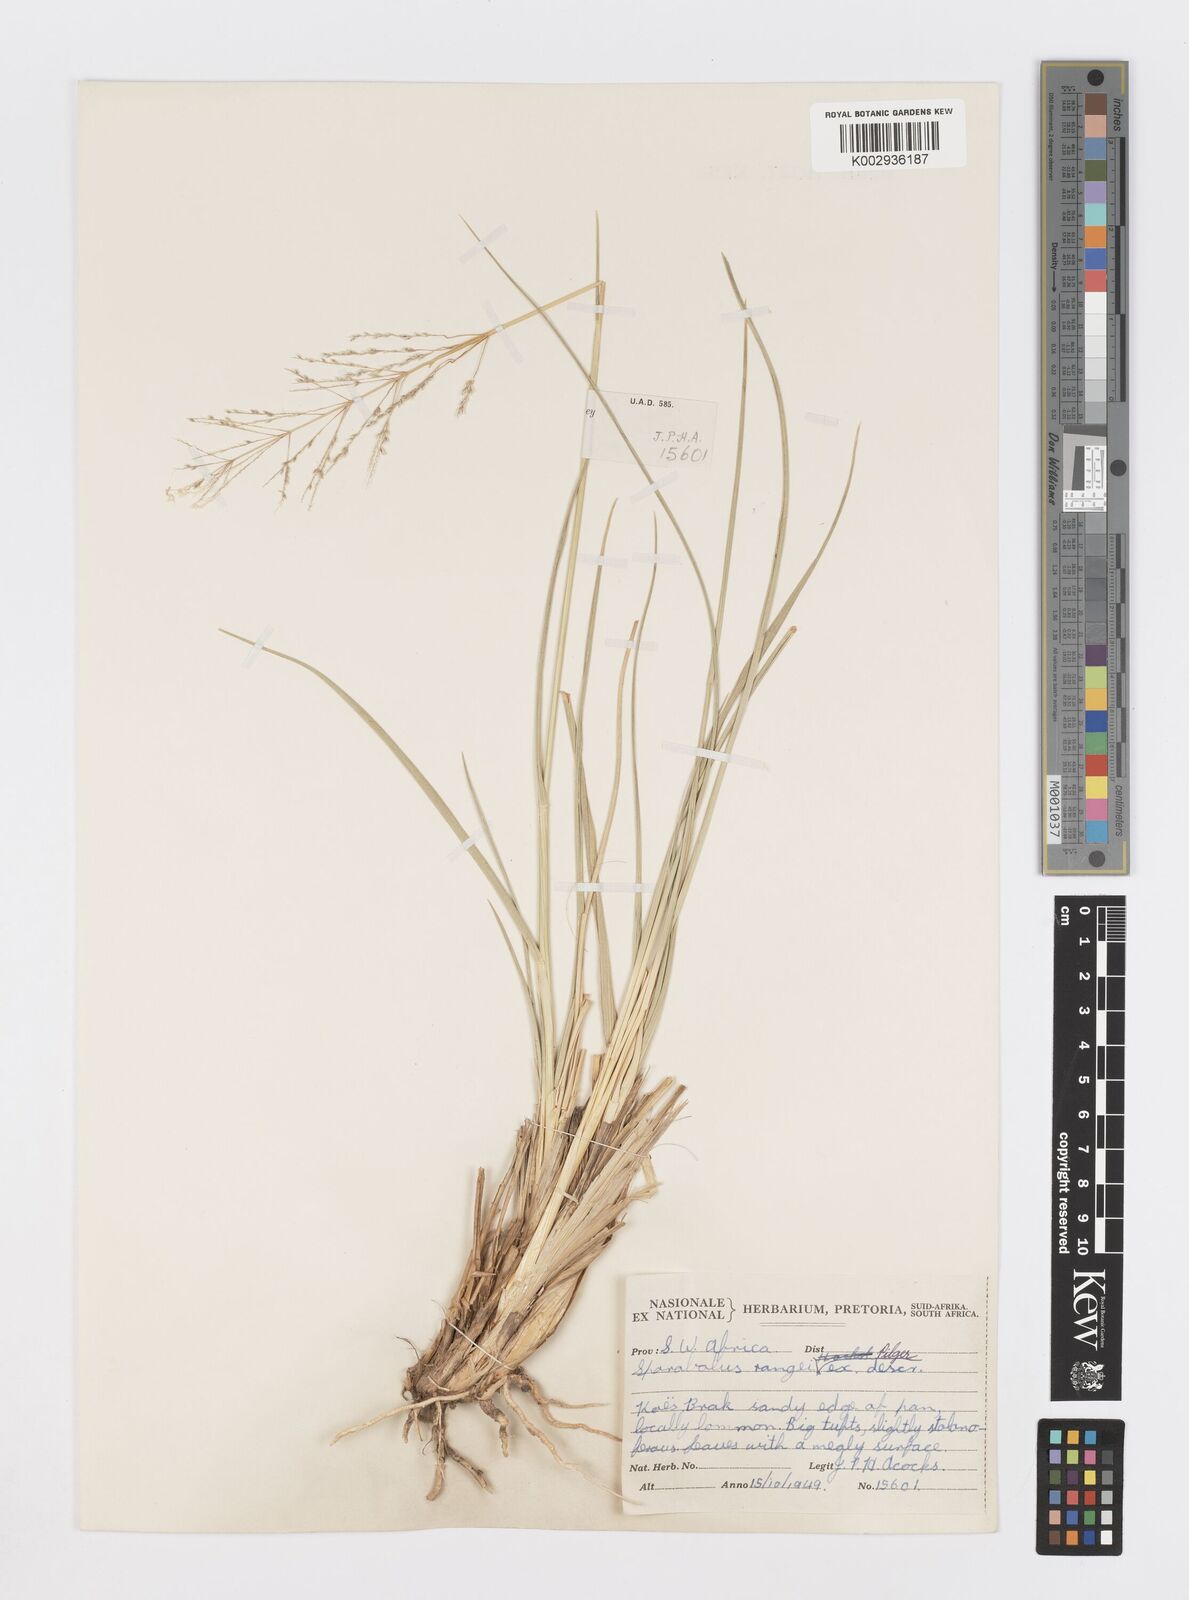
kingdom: Plantae
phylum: Tracheophyta
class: Liliopsida
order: Poales
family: Poaceae
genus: Sporobolus
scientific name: Sporobolus ioclados
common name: Pan dropseed
